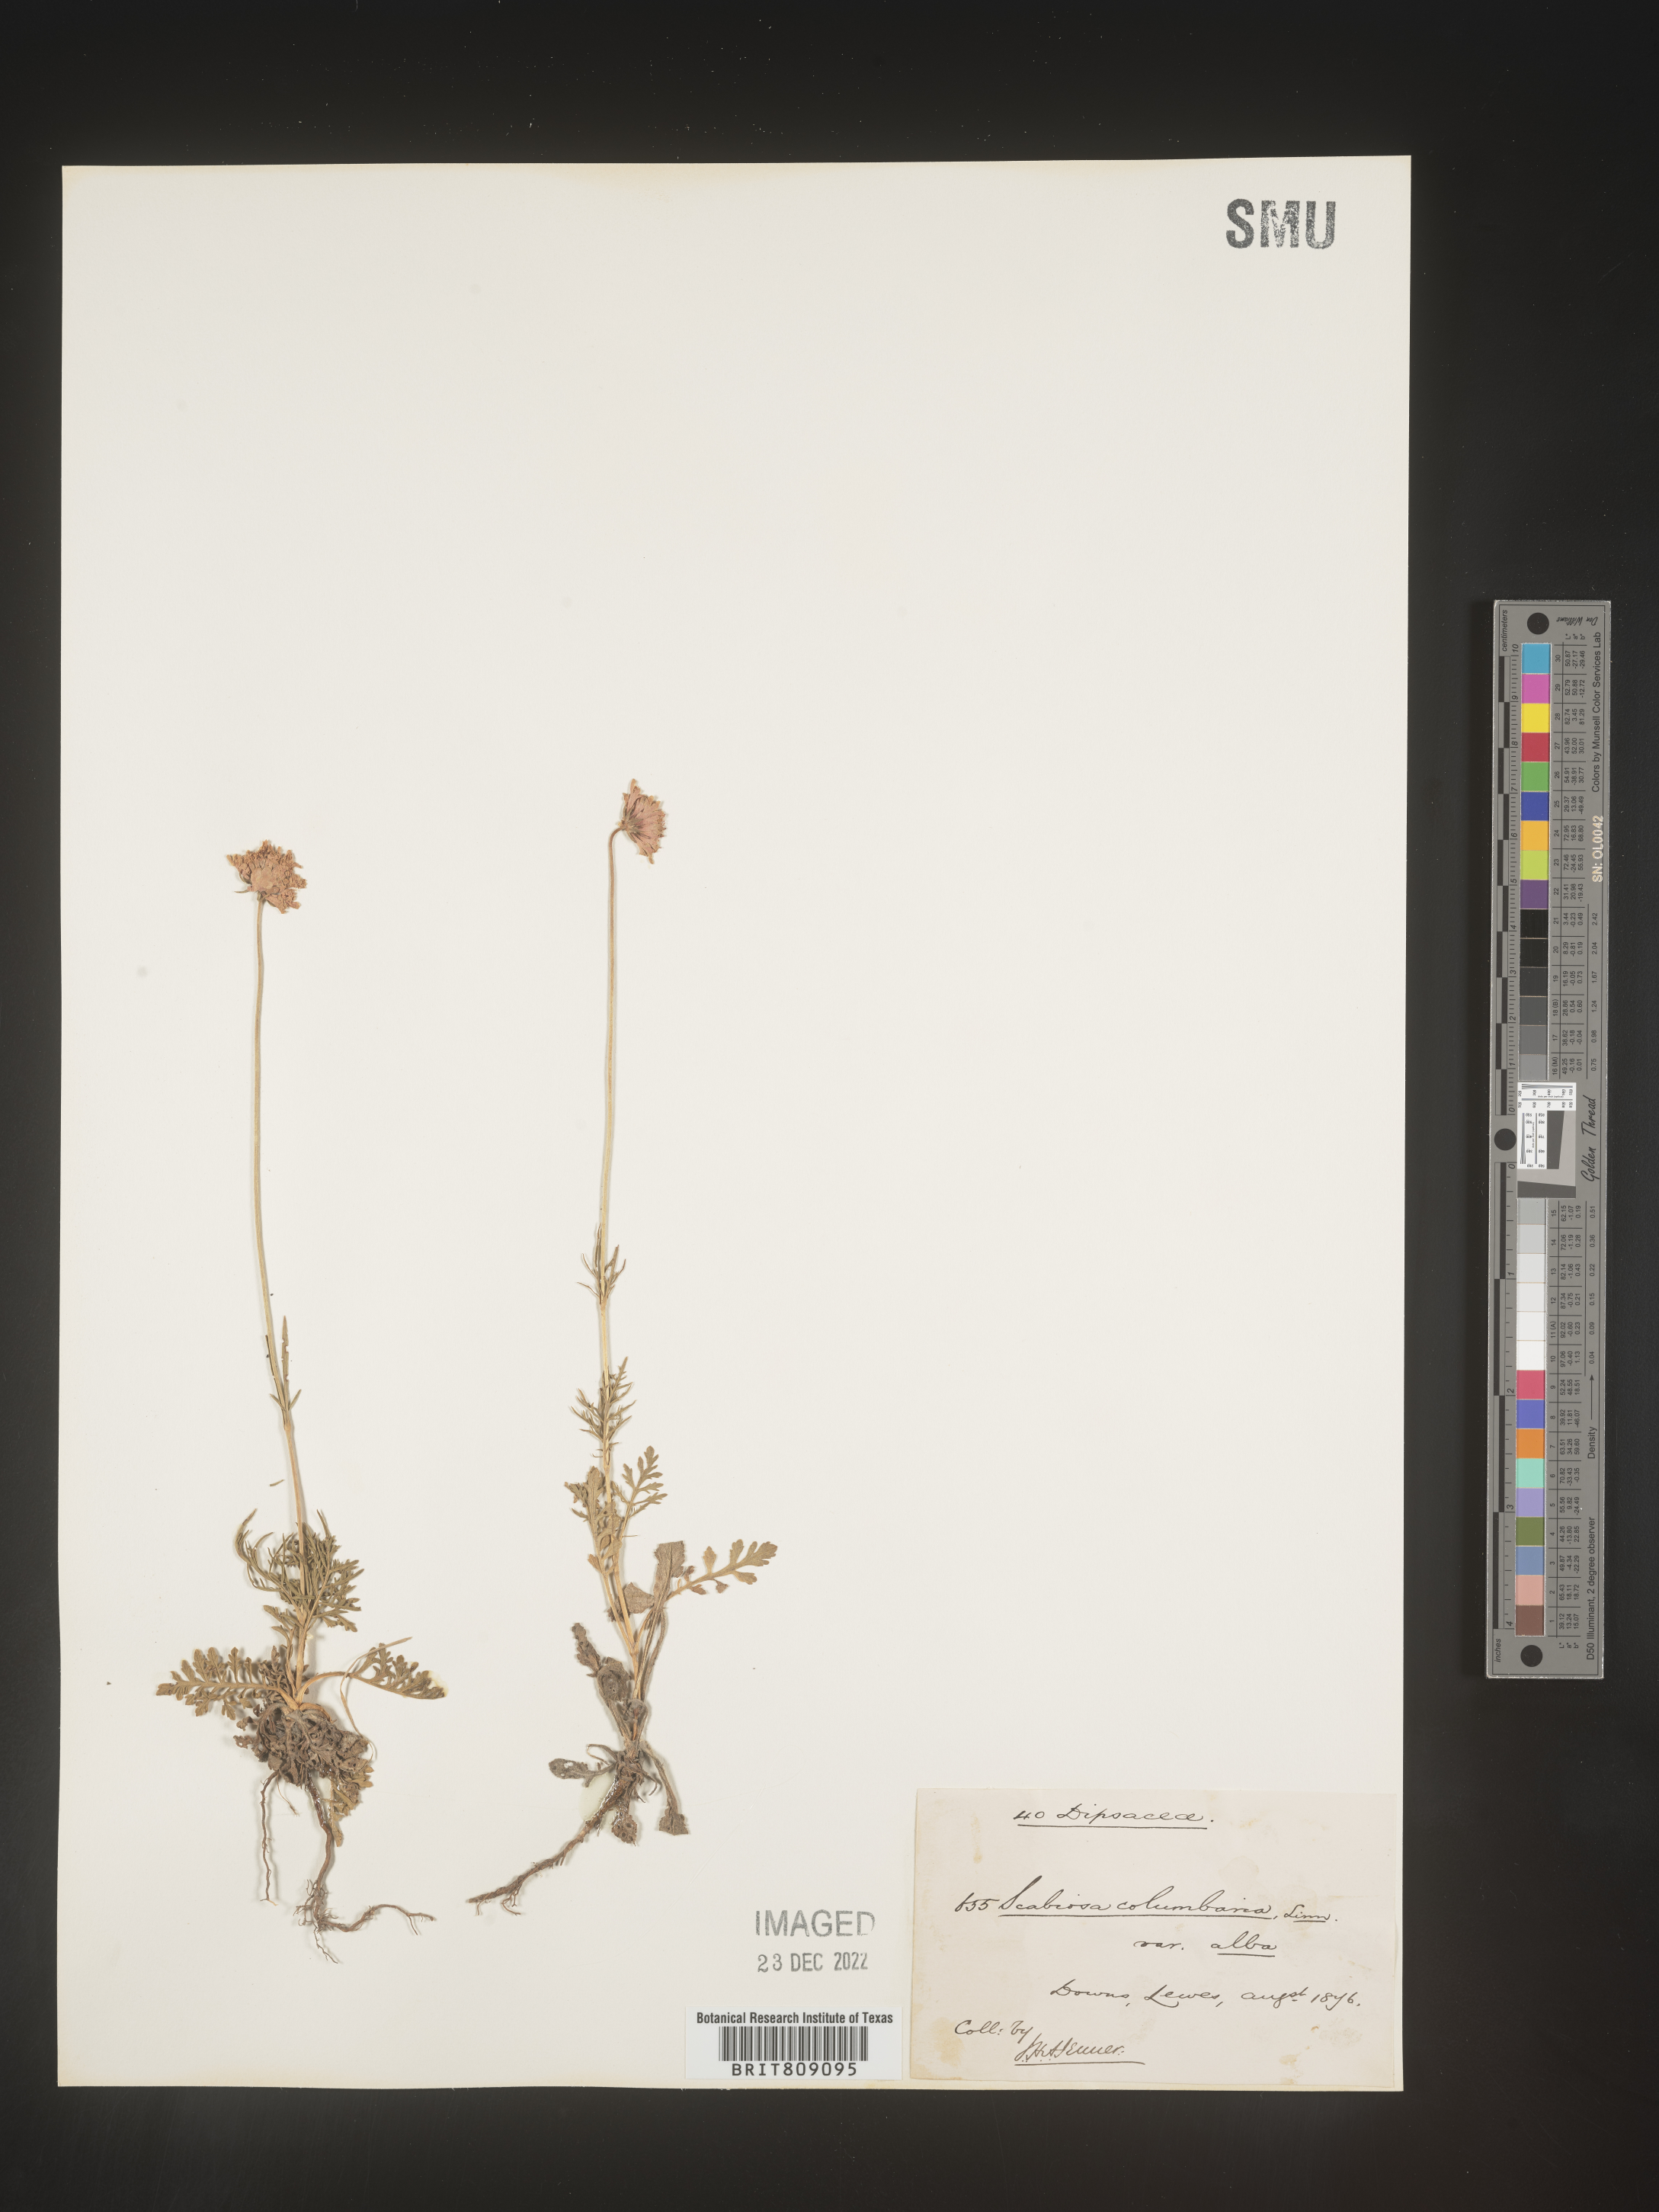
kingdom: Plantae
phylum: Tracheophyta
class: Magnoliopsida
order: Dipsacales
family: Caprifoliaceae
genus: Scabiosa
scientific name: Scabiosa
